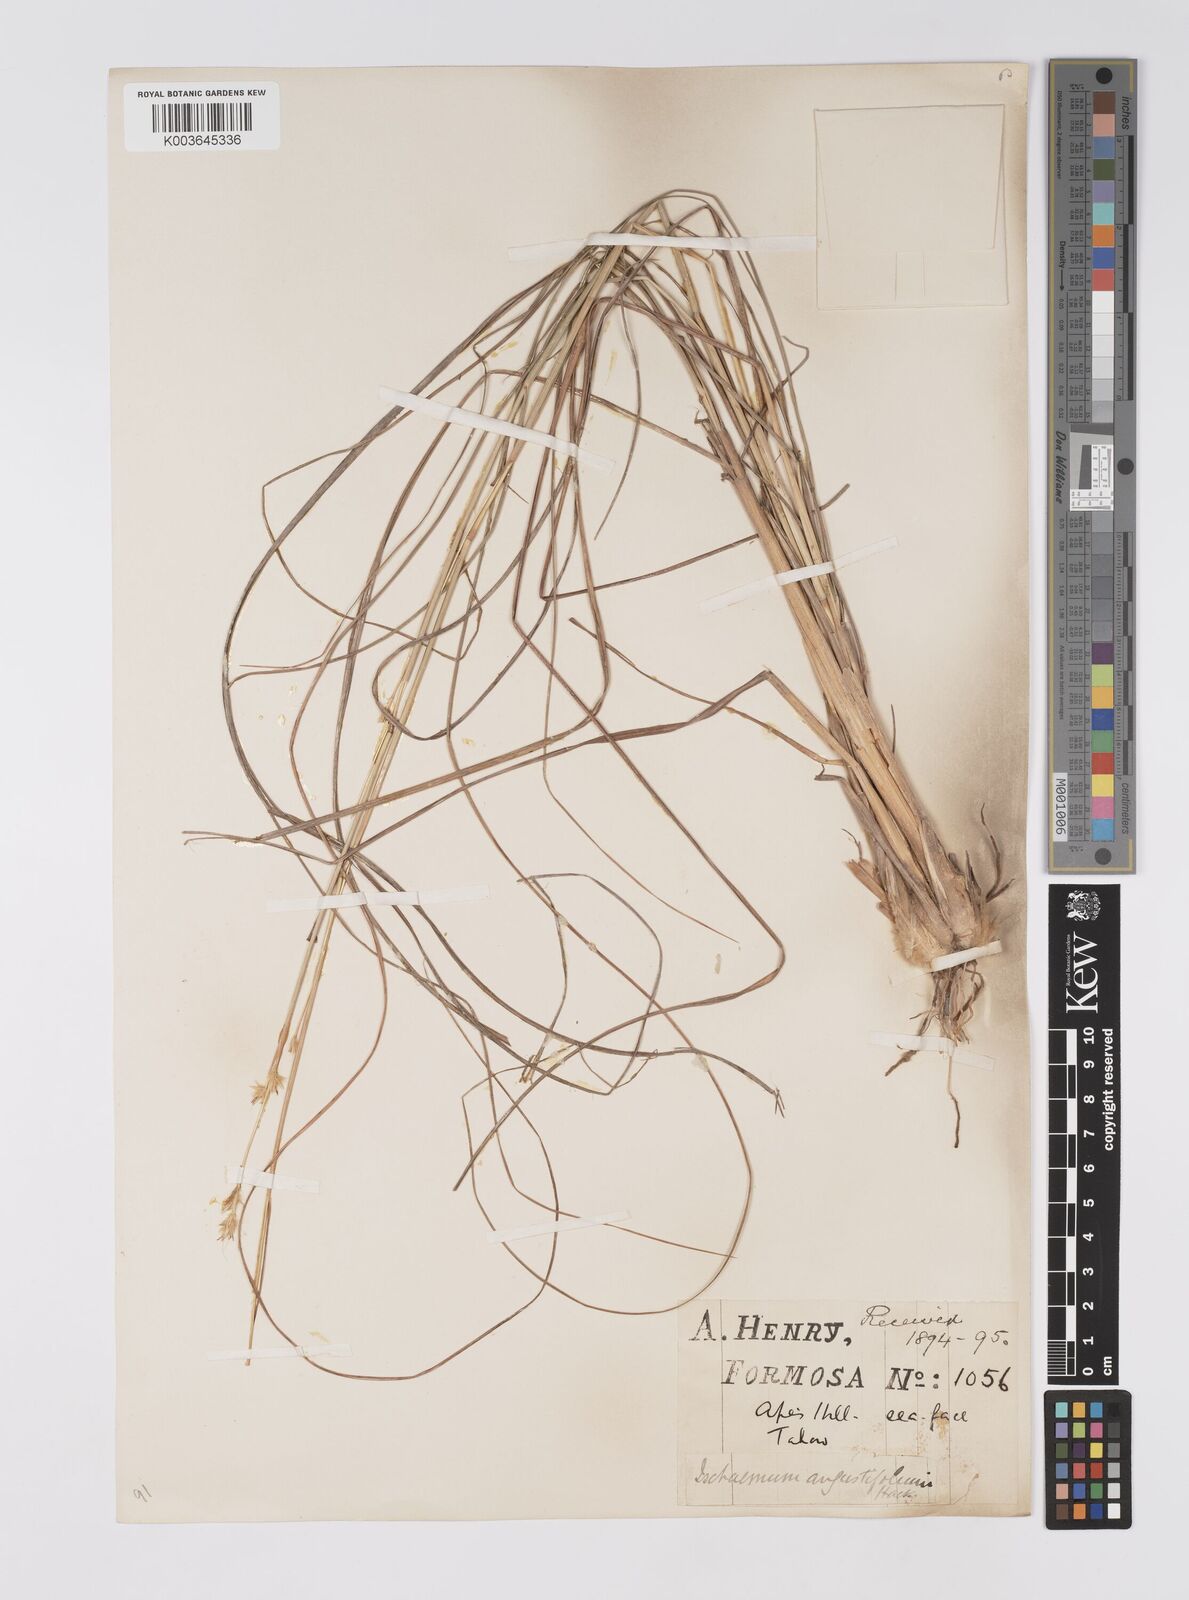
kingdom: Plantae
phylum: Tracheophyta
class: Liliopsida
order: Poales
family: Poaceae
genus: Eulaliopsis
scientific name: Eulaliopsis binata
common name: Baib grass
